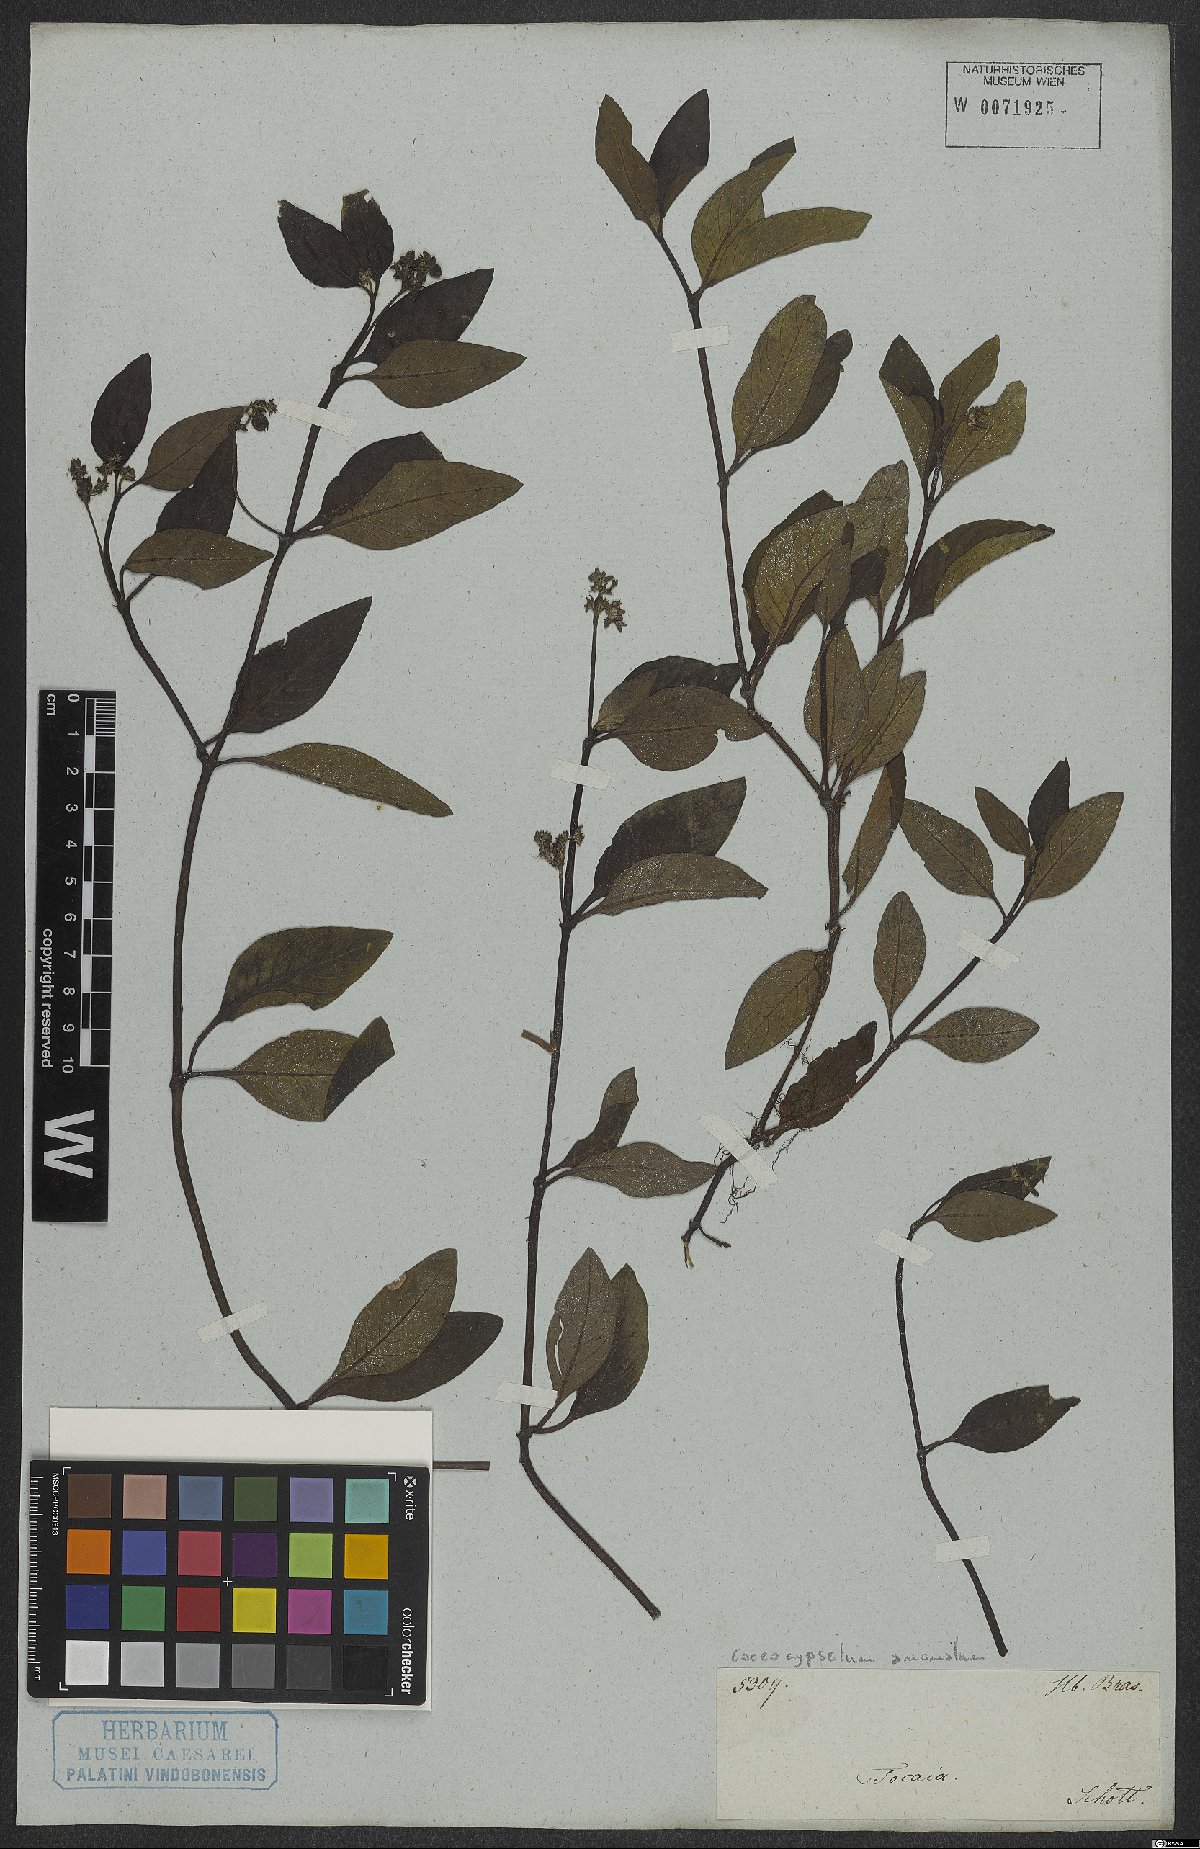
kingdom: Plantae
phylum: Tracheophyta
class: Magnoliopsida
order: Gentianales
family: Rubiaceae
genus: Coccocypselum
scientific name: Coccocypselum anomalum
